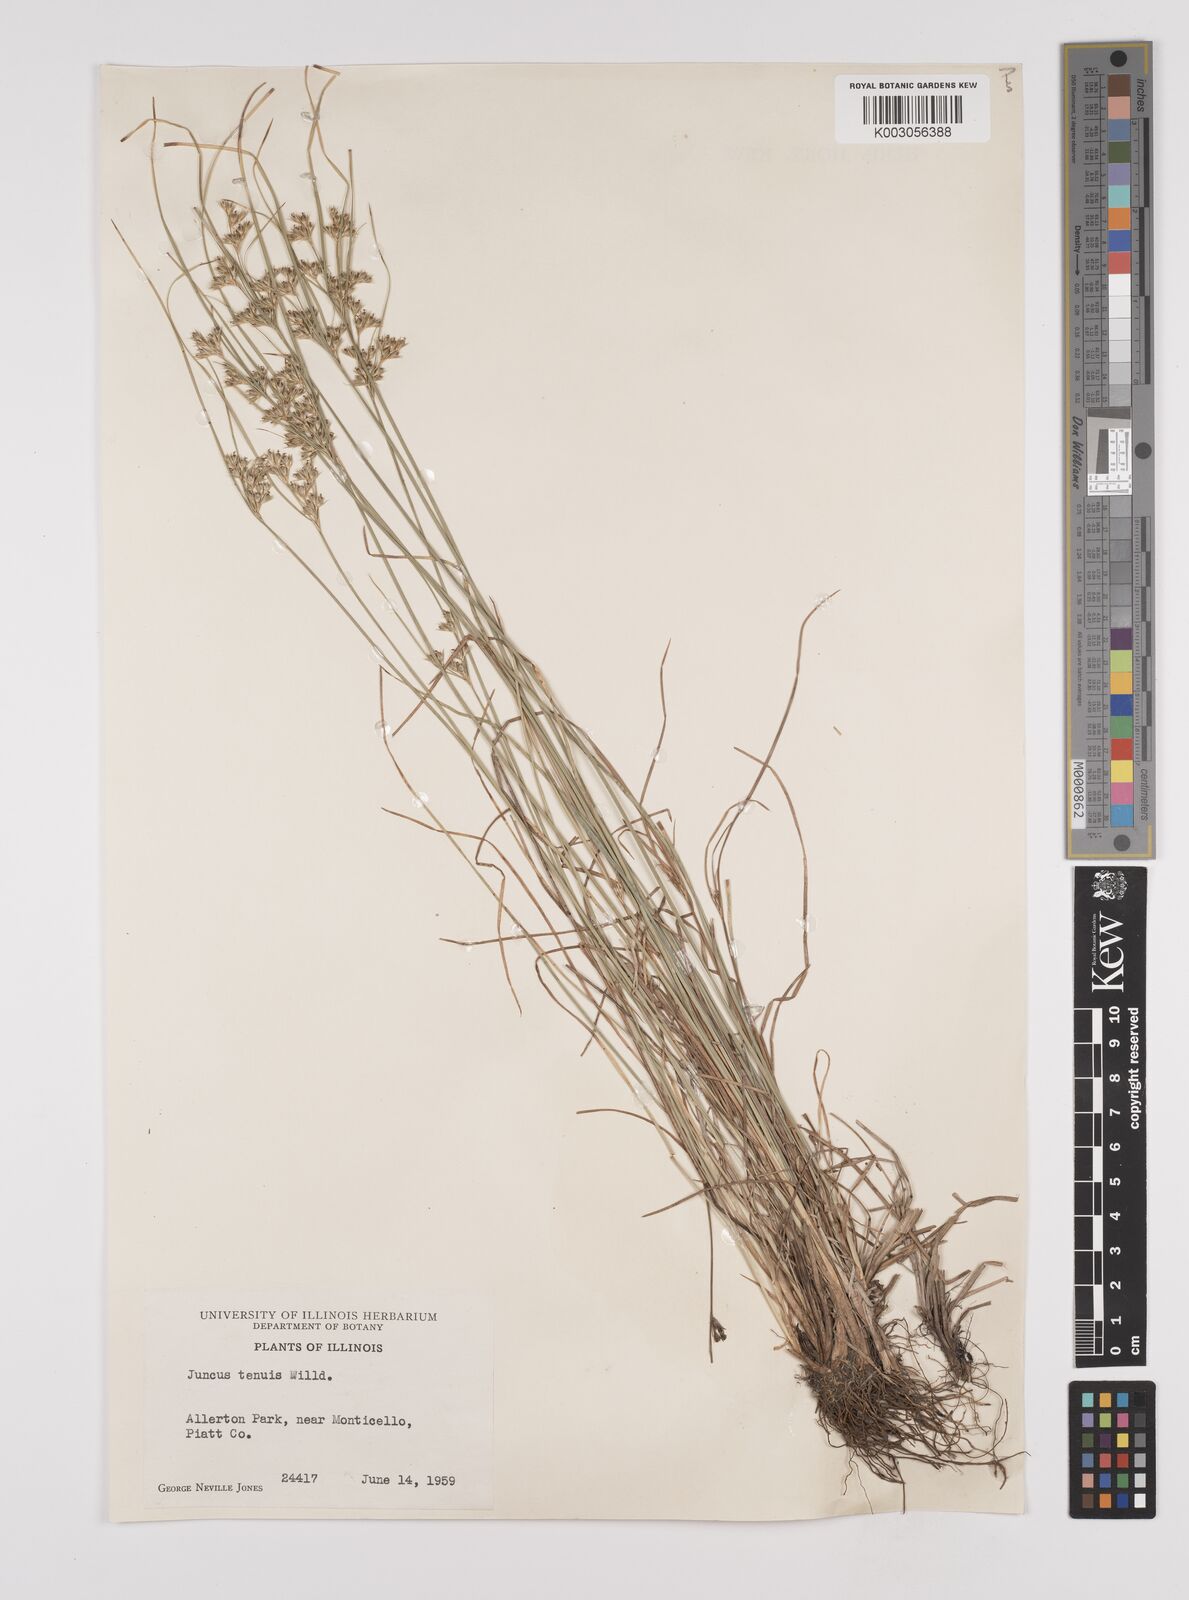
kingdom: Plantae
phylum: Tracheophyta
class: Liliopsida
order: Poales
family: Juncaceae
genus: Juncus
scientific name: Juncus tenuis
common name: Slender rush
